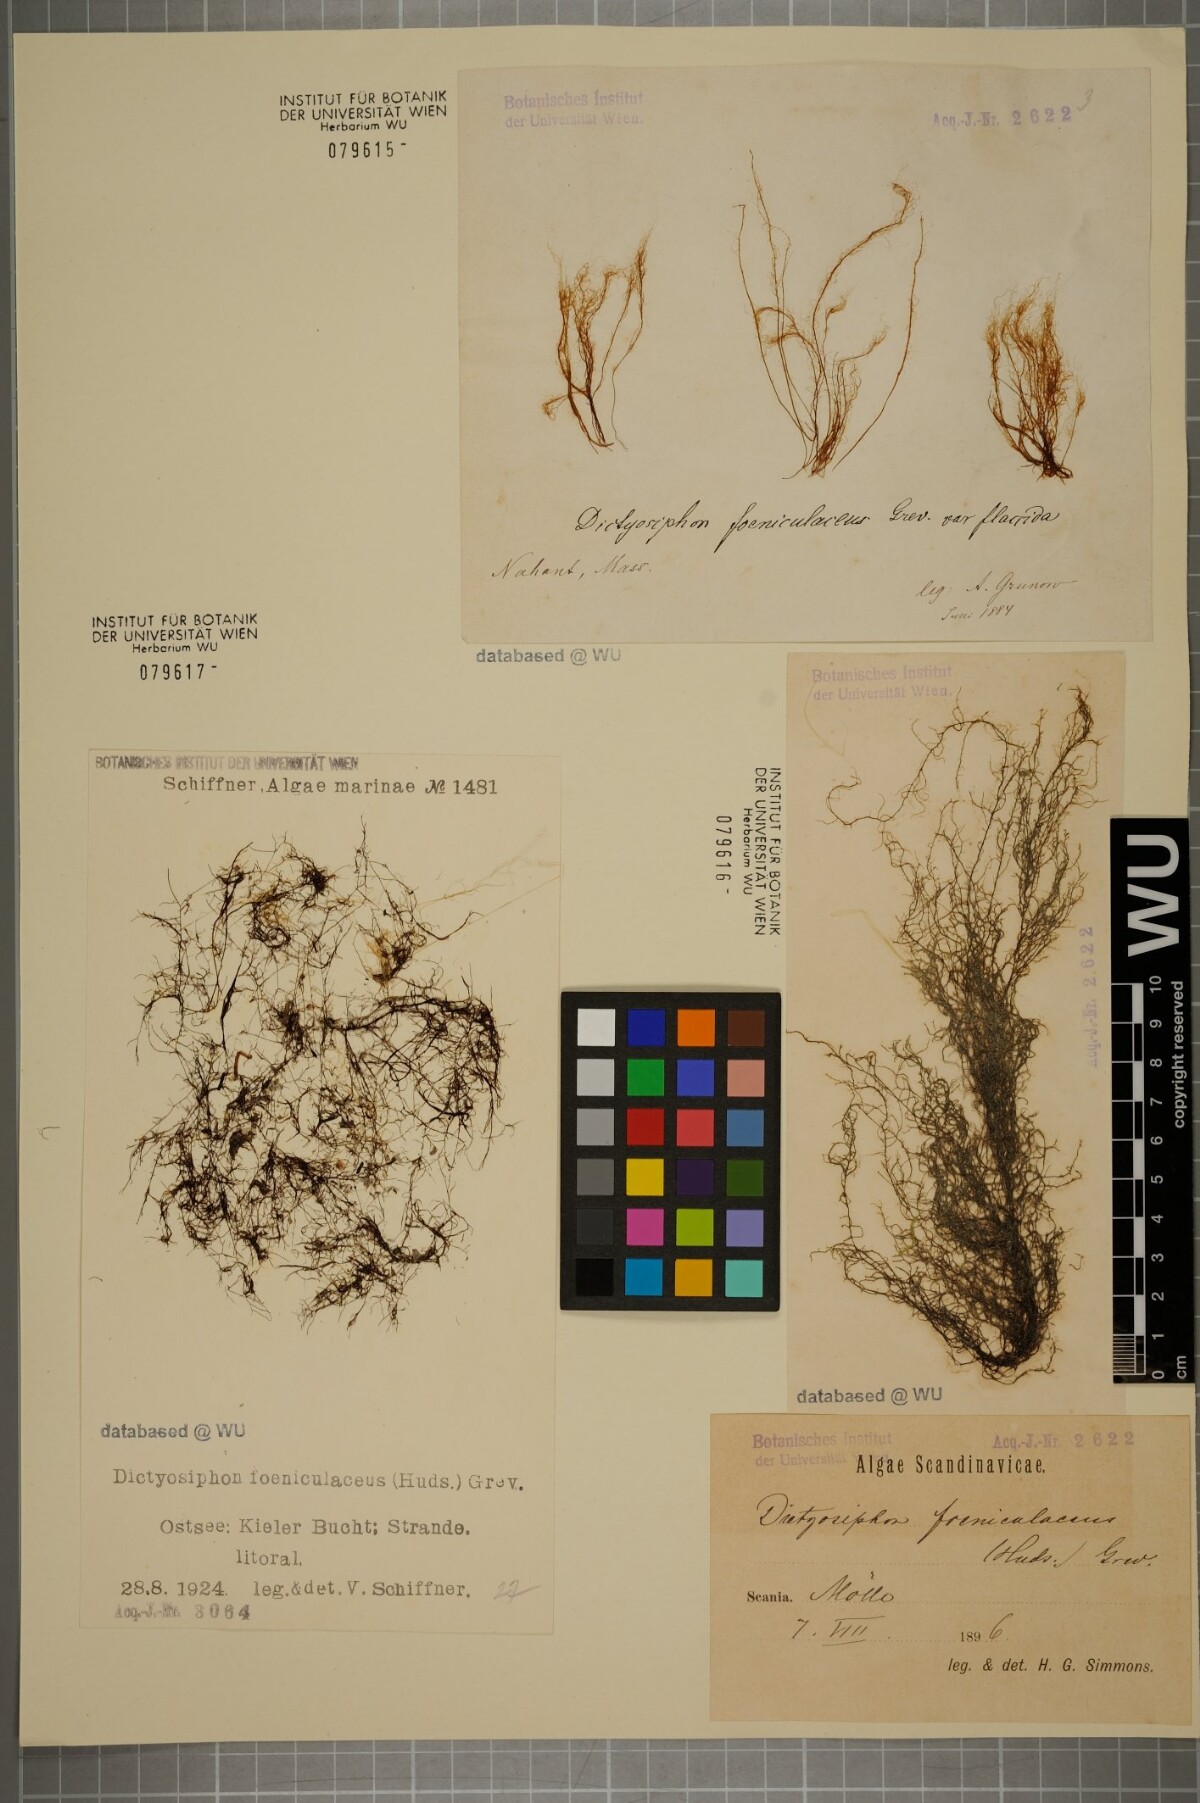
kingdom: Chromista
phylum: Ochrophyta
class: Phaeophyceae
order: Ectocarpales
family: Chordariaceae
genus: Dictyosiphon
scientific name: Dictyosiphon foeniculaceus
